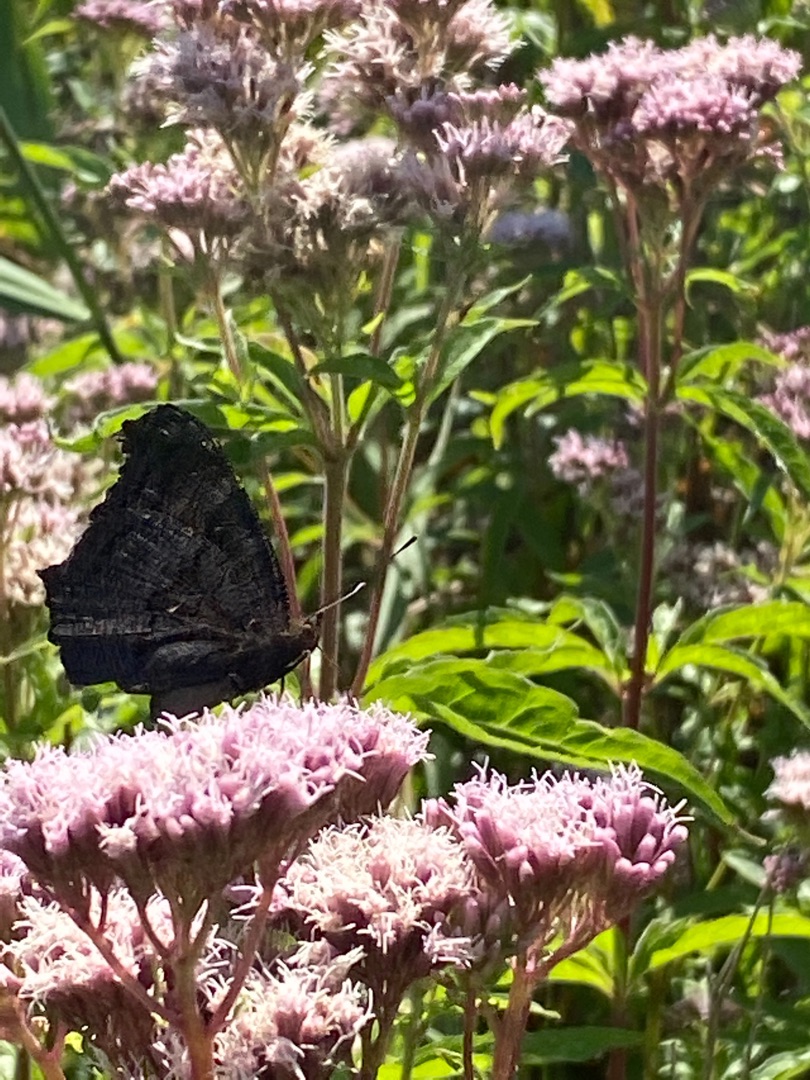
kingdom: Animalia
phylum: Arthropoda
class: Insecta
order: Lepidoptera
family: Nymphalidae
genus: Aglais
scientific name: Aglais io
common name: Dagpåfugleøje
